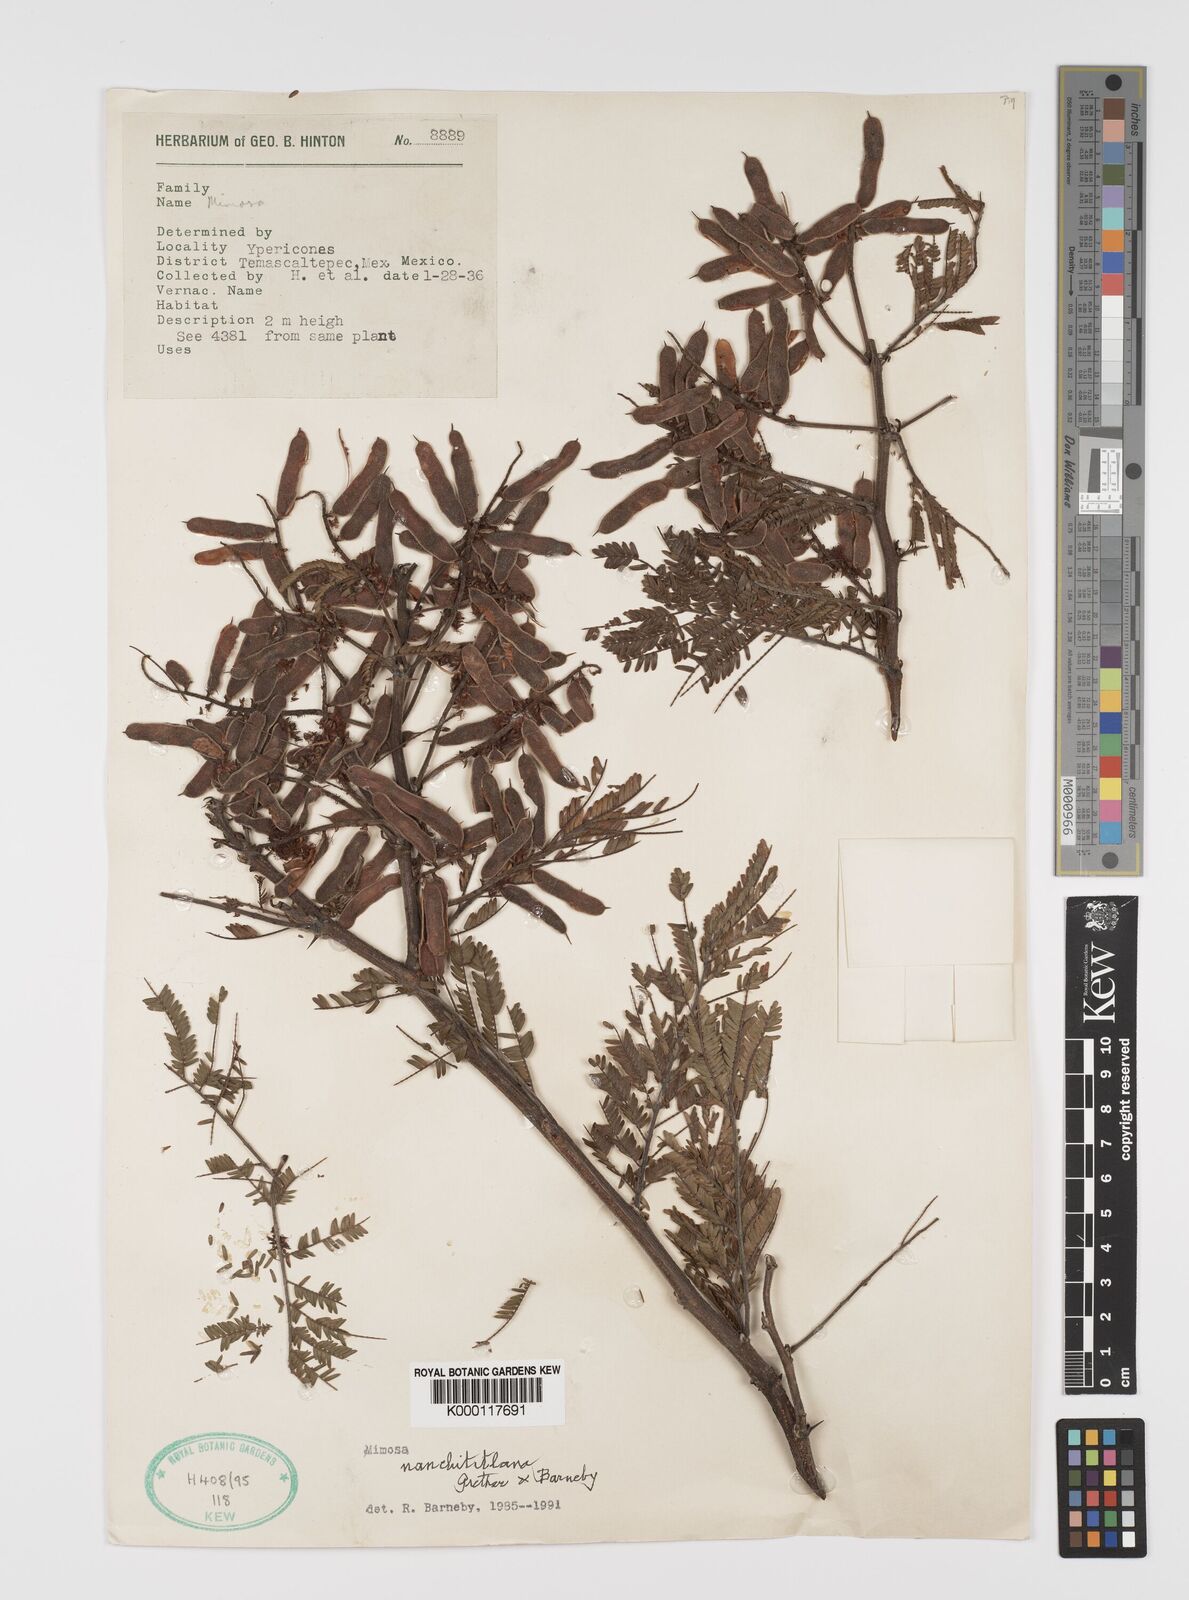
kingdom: Plantae
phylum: Tracheophyta
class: Magnoliopsida
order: Fabales
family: Fabaceae
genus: Mimosa
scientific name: Mimosa nanchititlana
